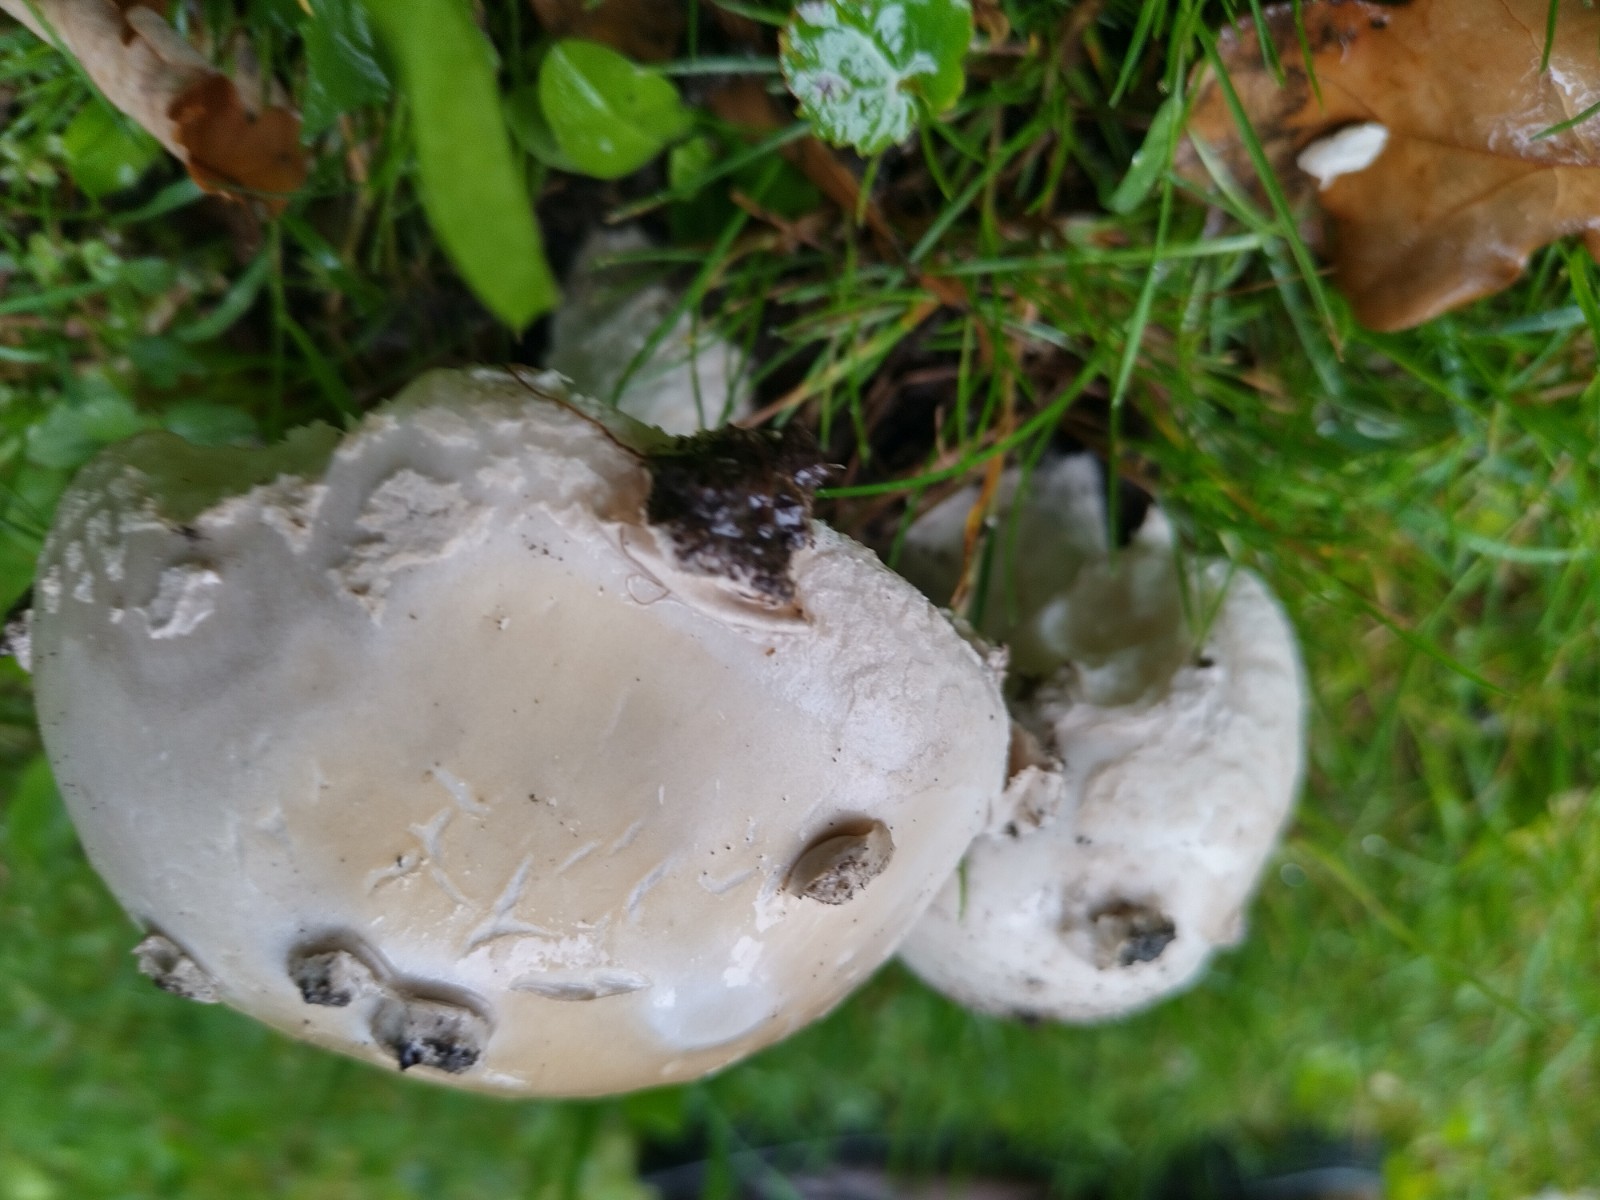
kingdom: Fungi
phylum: Basidiomycota
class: Agaricomycetes
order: Agaricales
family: Amanitaceae
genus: Amanita
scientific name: Amanita
